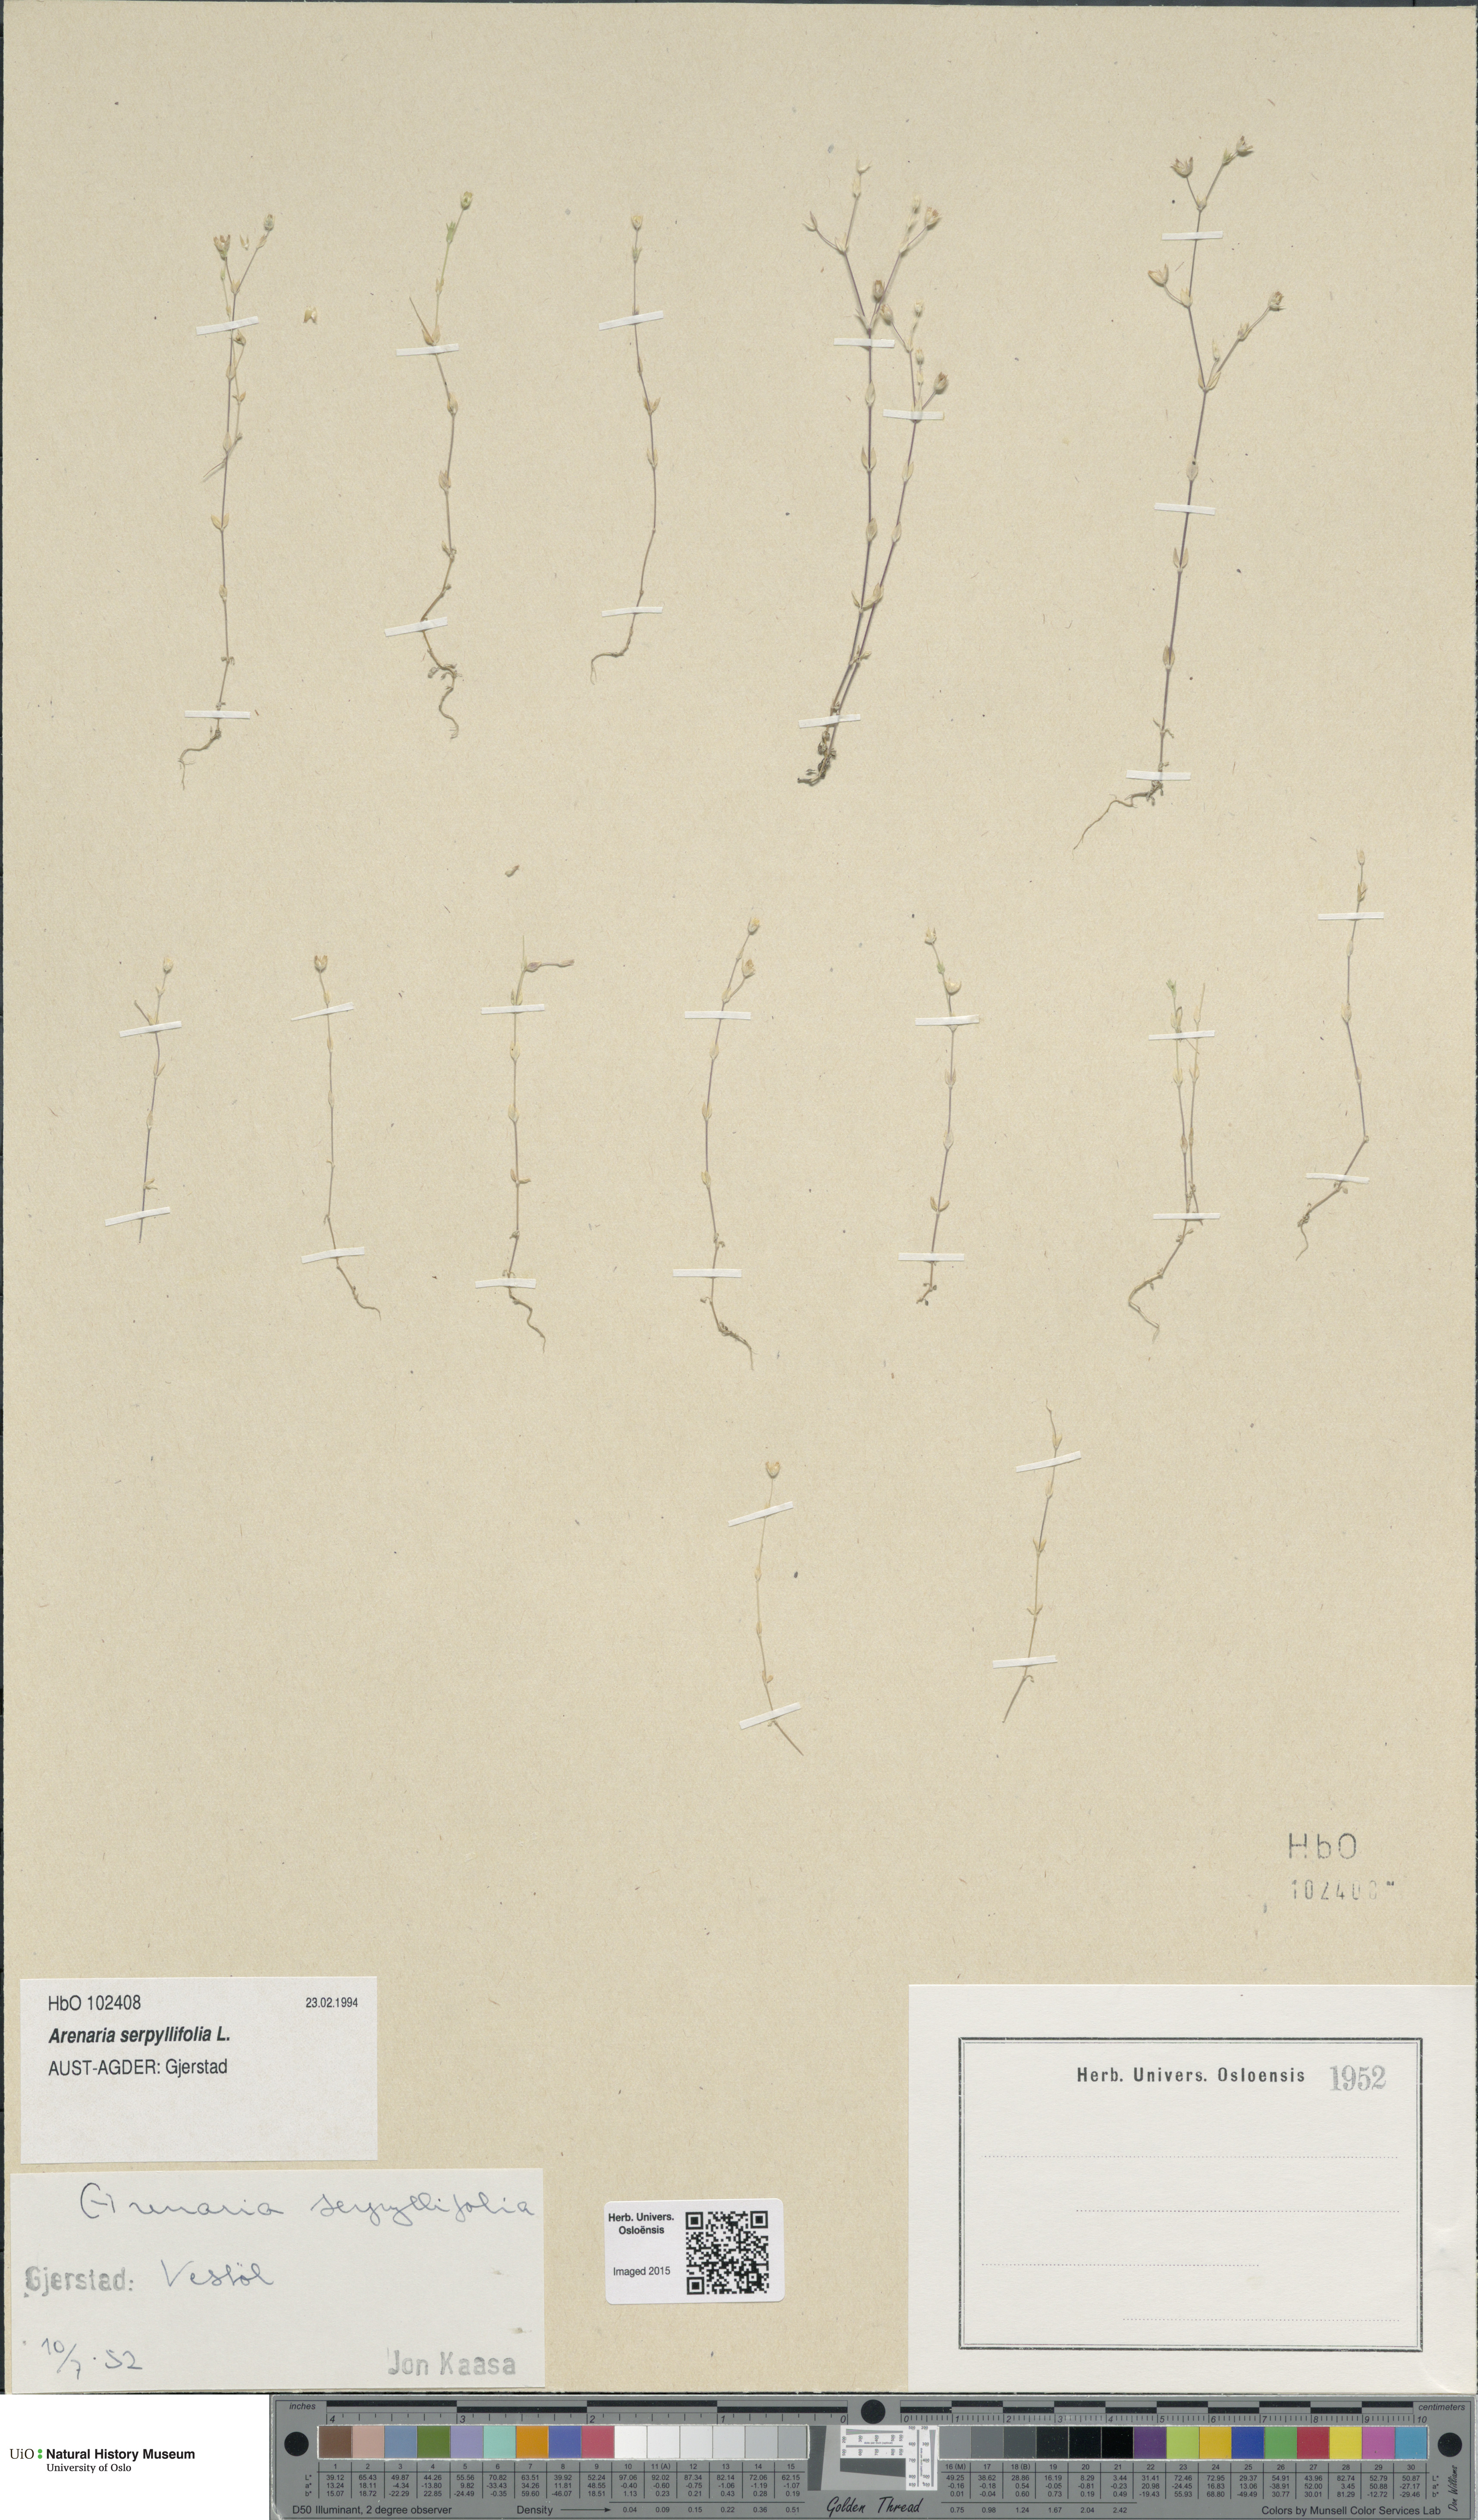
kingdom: Plantae
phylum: Tracheophyta
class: Magnoliopsida
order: Caryophyllales
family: Caryophyllaceae
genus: Arenaria
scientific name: Arenaria serpyllifolia
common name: Thyme-leaved sandwort
